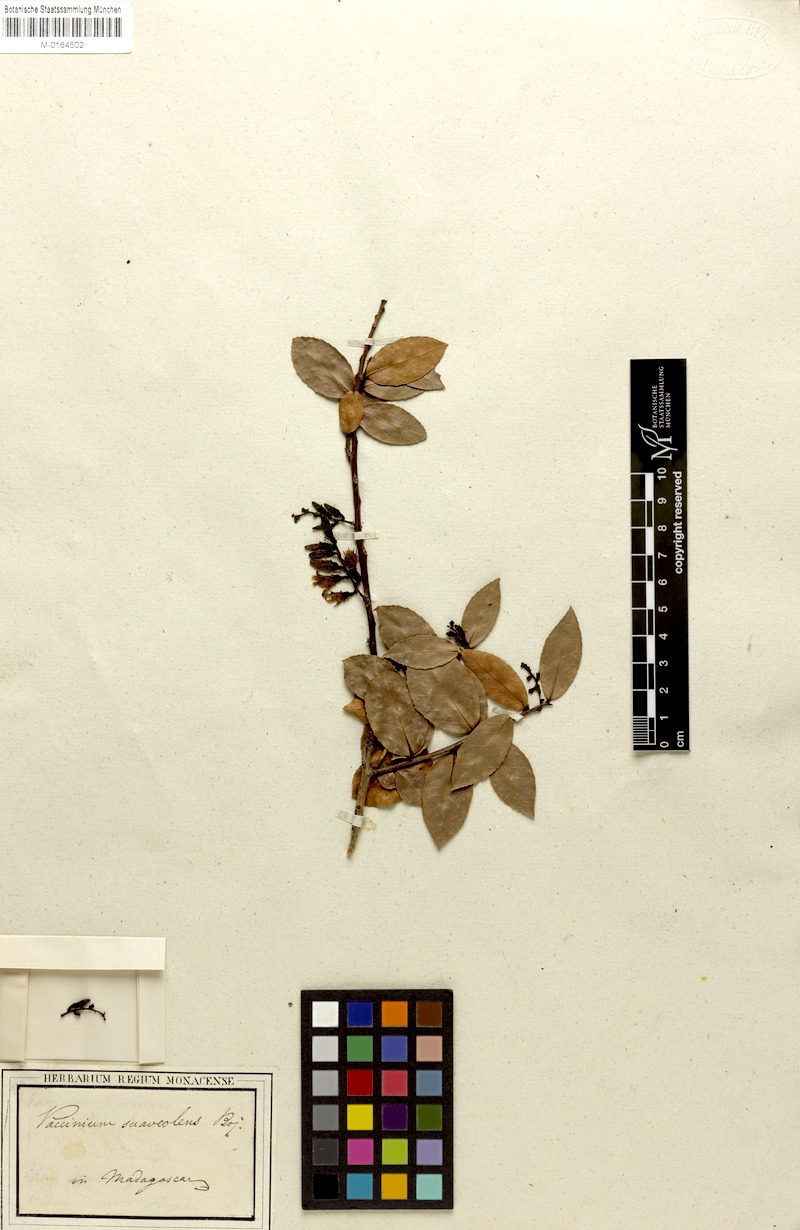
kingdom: Plantae
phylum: Tracheophyta
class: Magnoliopsida
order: Ericales
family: Ericaceae
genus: Vaccinium
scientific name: Vaccinium madagascariense
